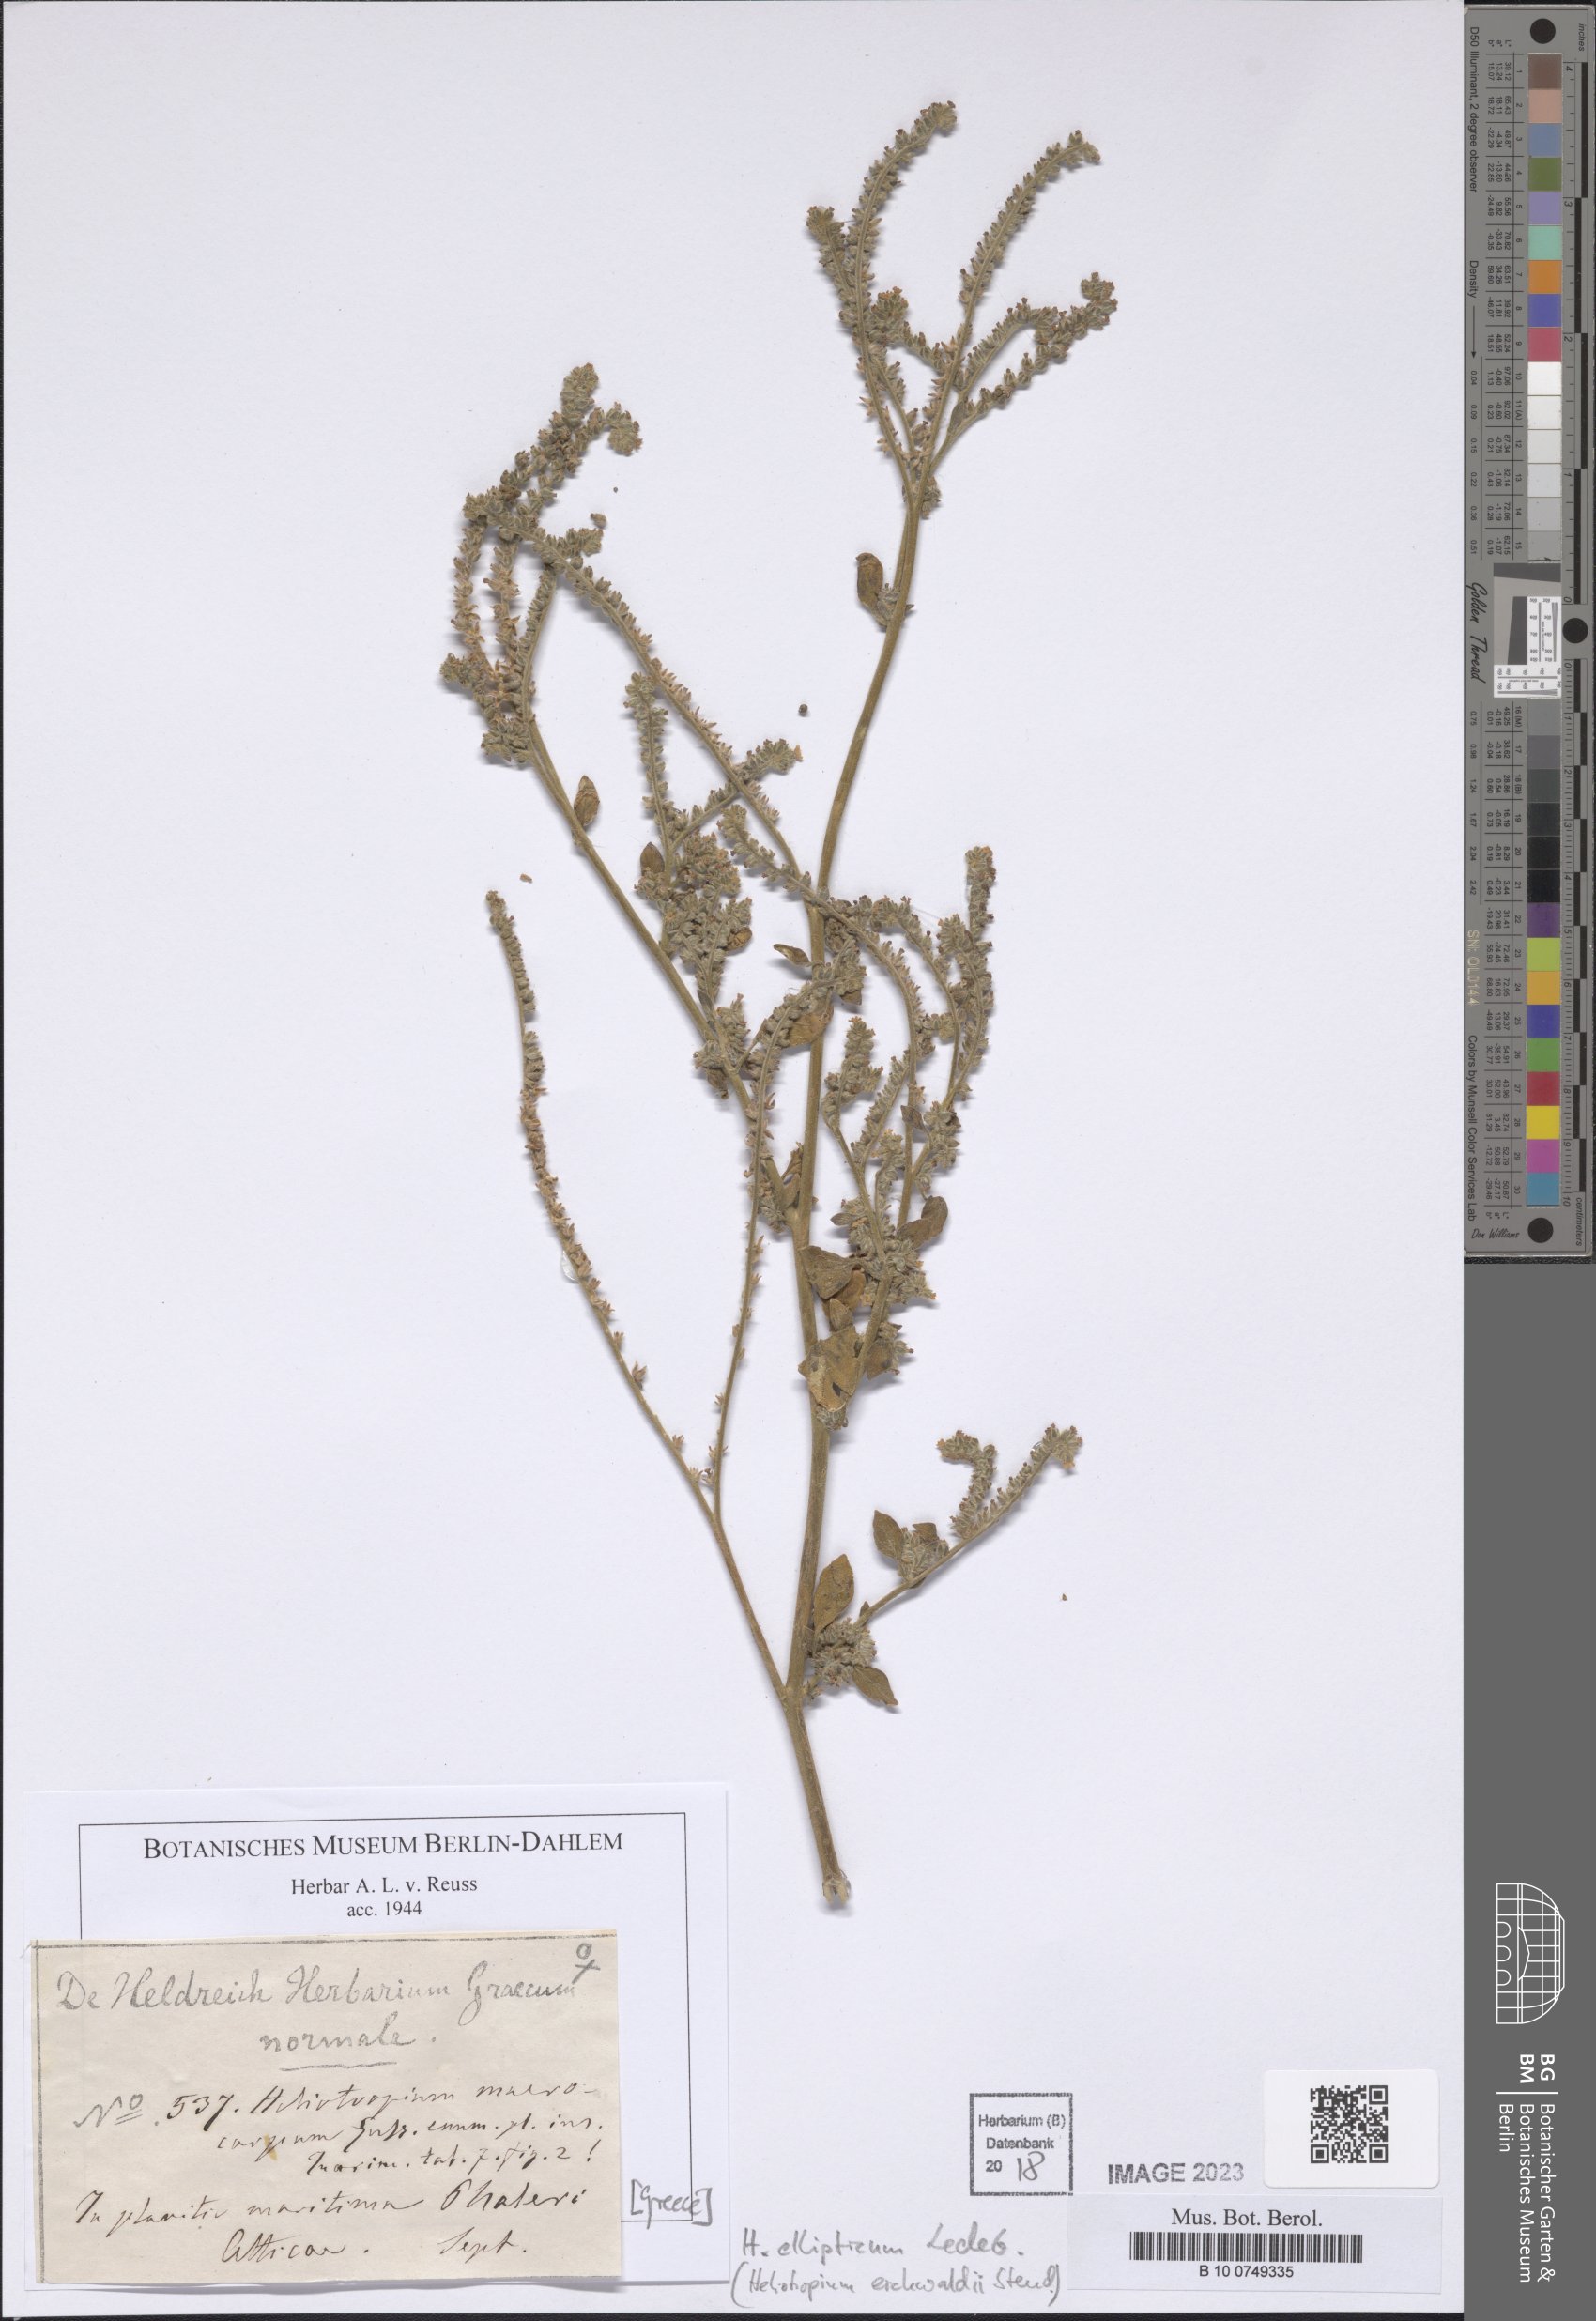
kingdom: Plantae
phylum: Tracheophyta
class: Magnoliopsida
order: Boraginales
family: Heliotropiaceae
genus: Heliotropium
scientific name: Heliotropium ellipticum
